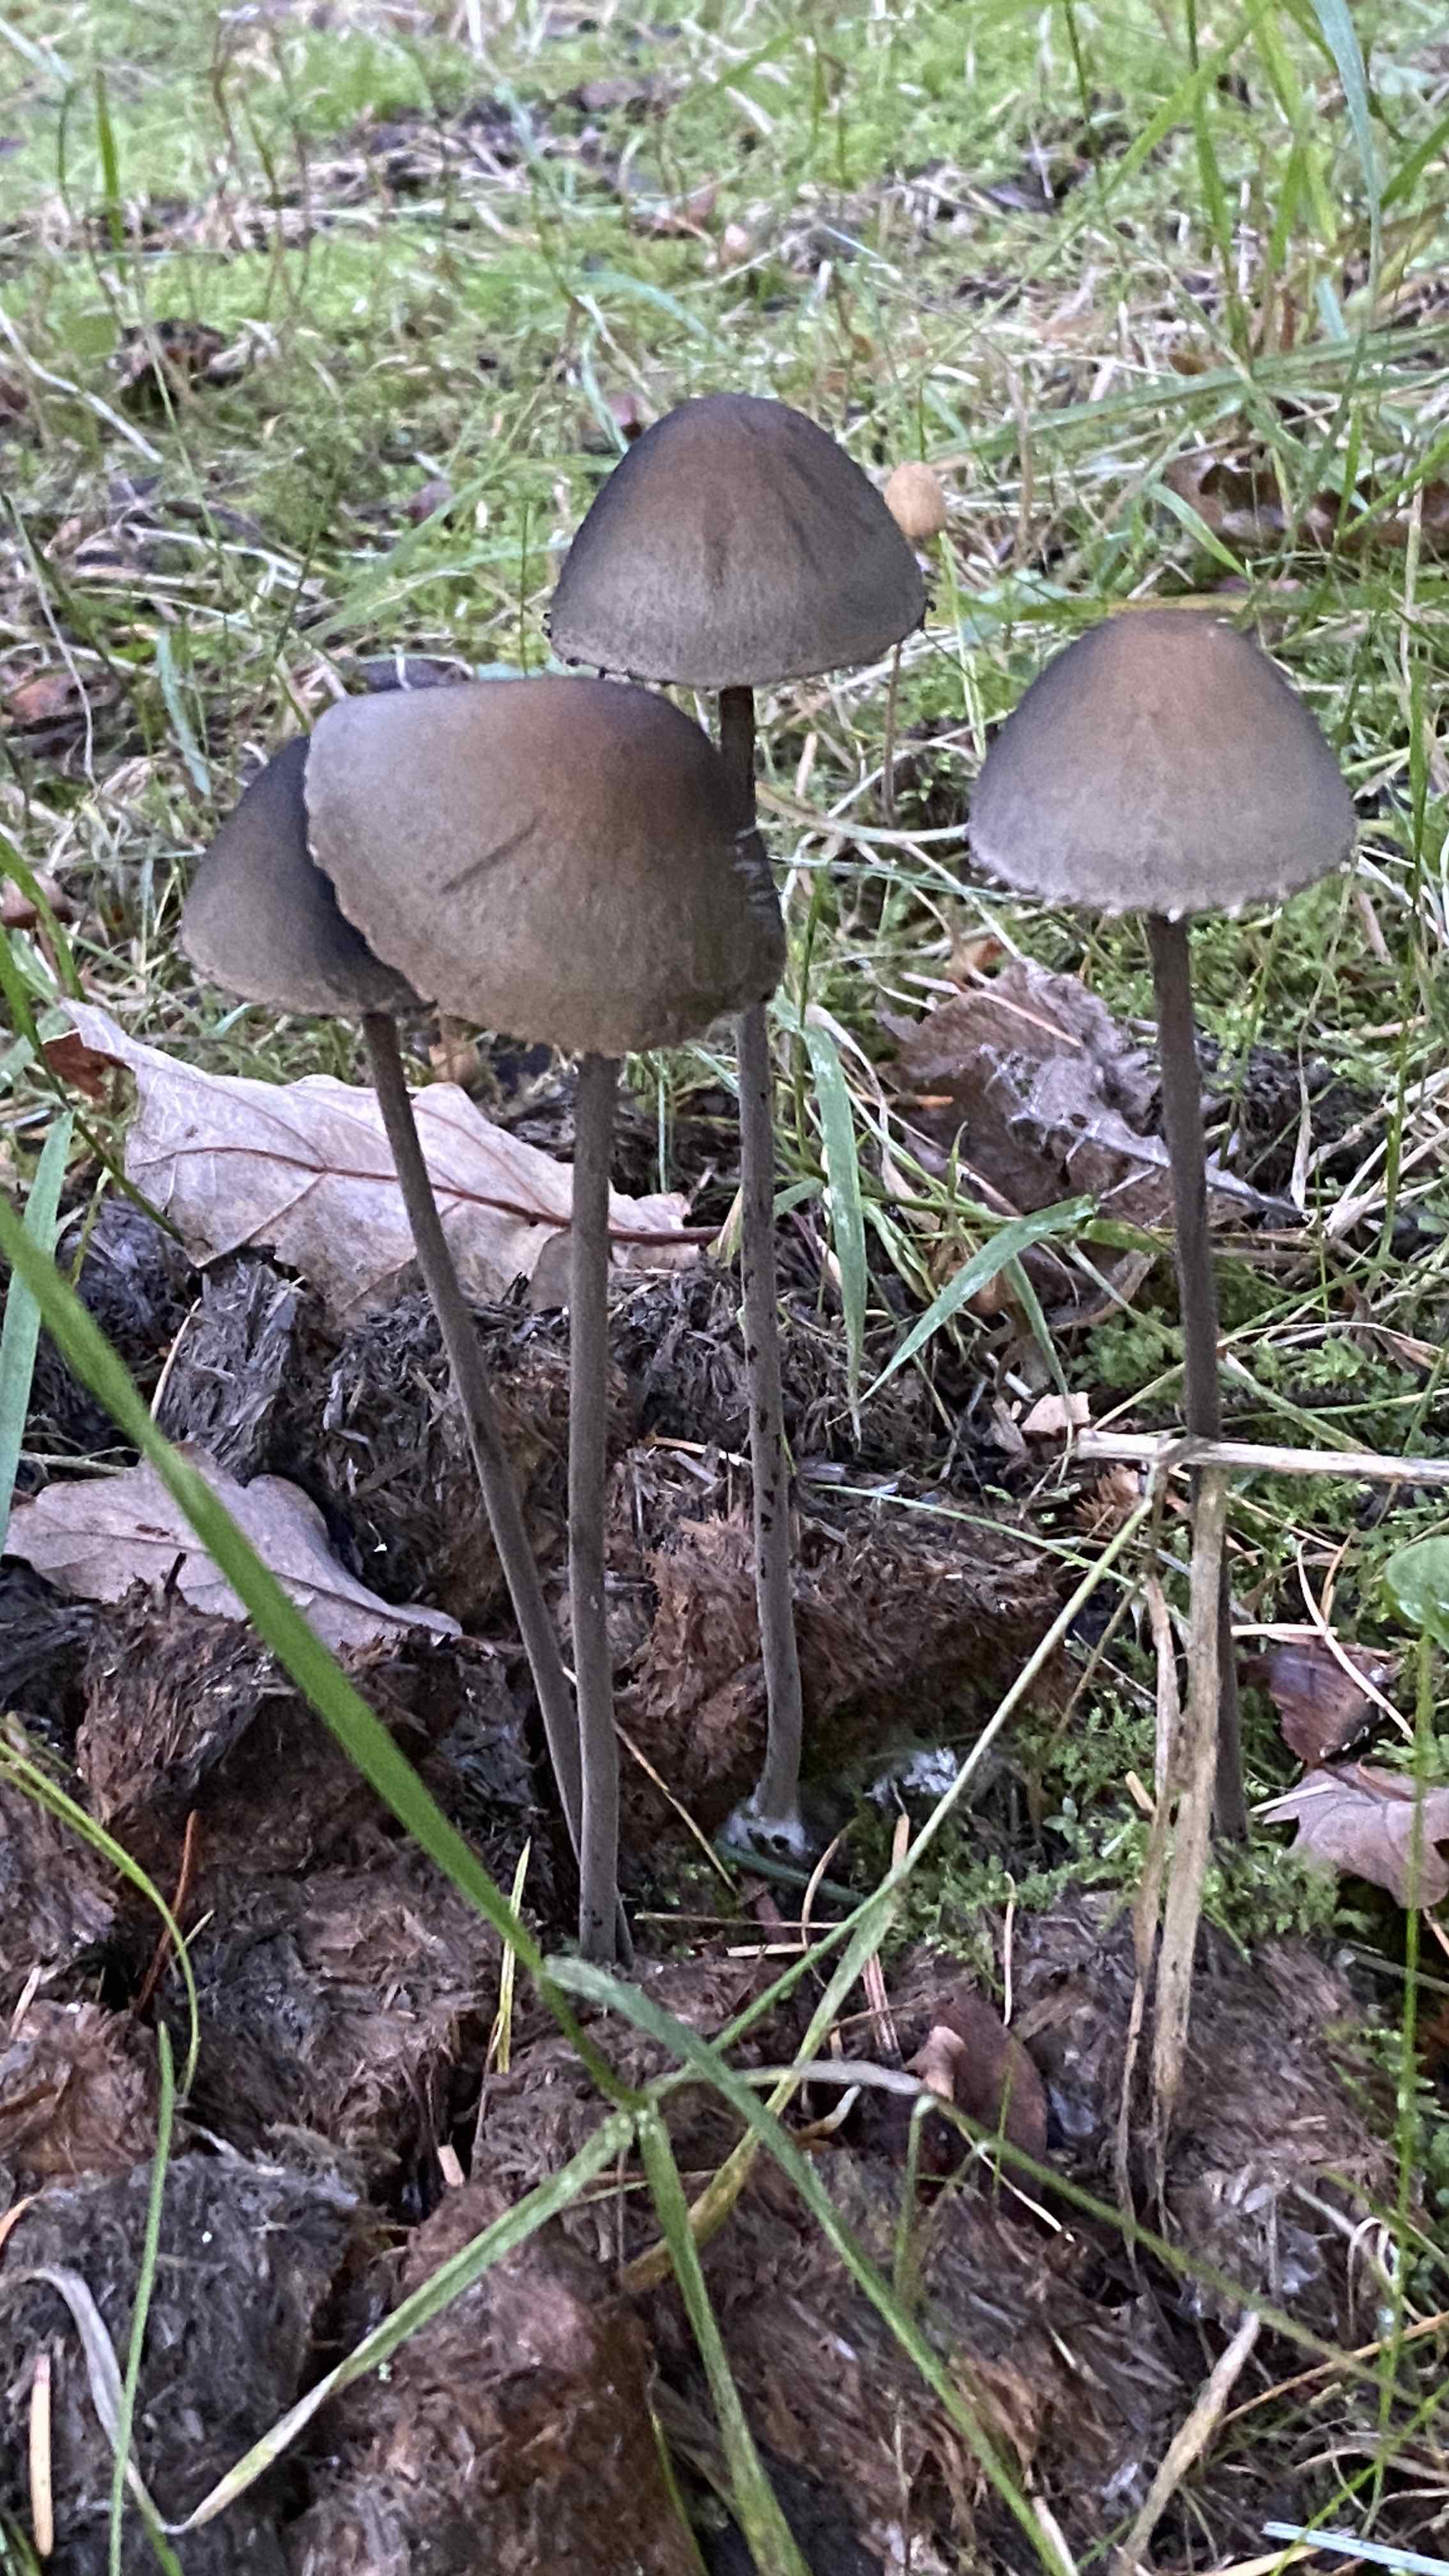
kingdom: Fungi
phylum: Basidiomycota
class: Agaricomycetes
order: Agaricales
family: Bolbitiaceae
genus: Panaeolus
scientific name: Panaeolus papilionaceus
